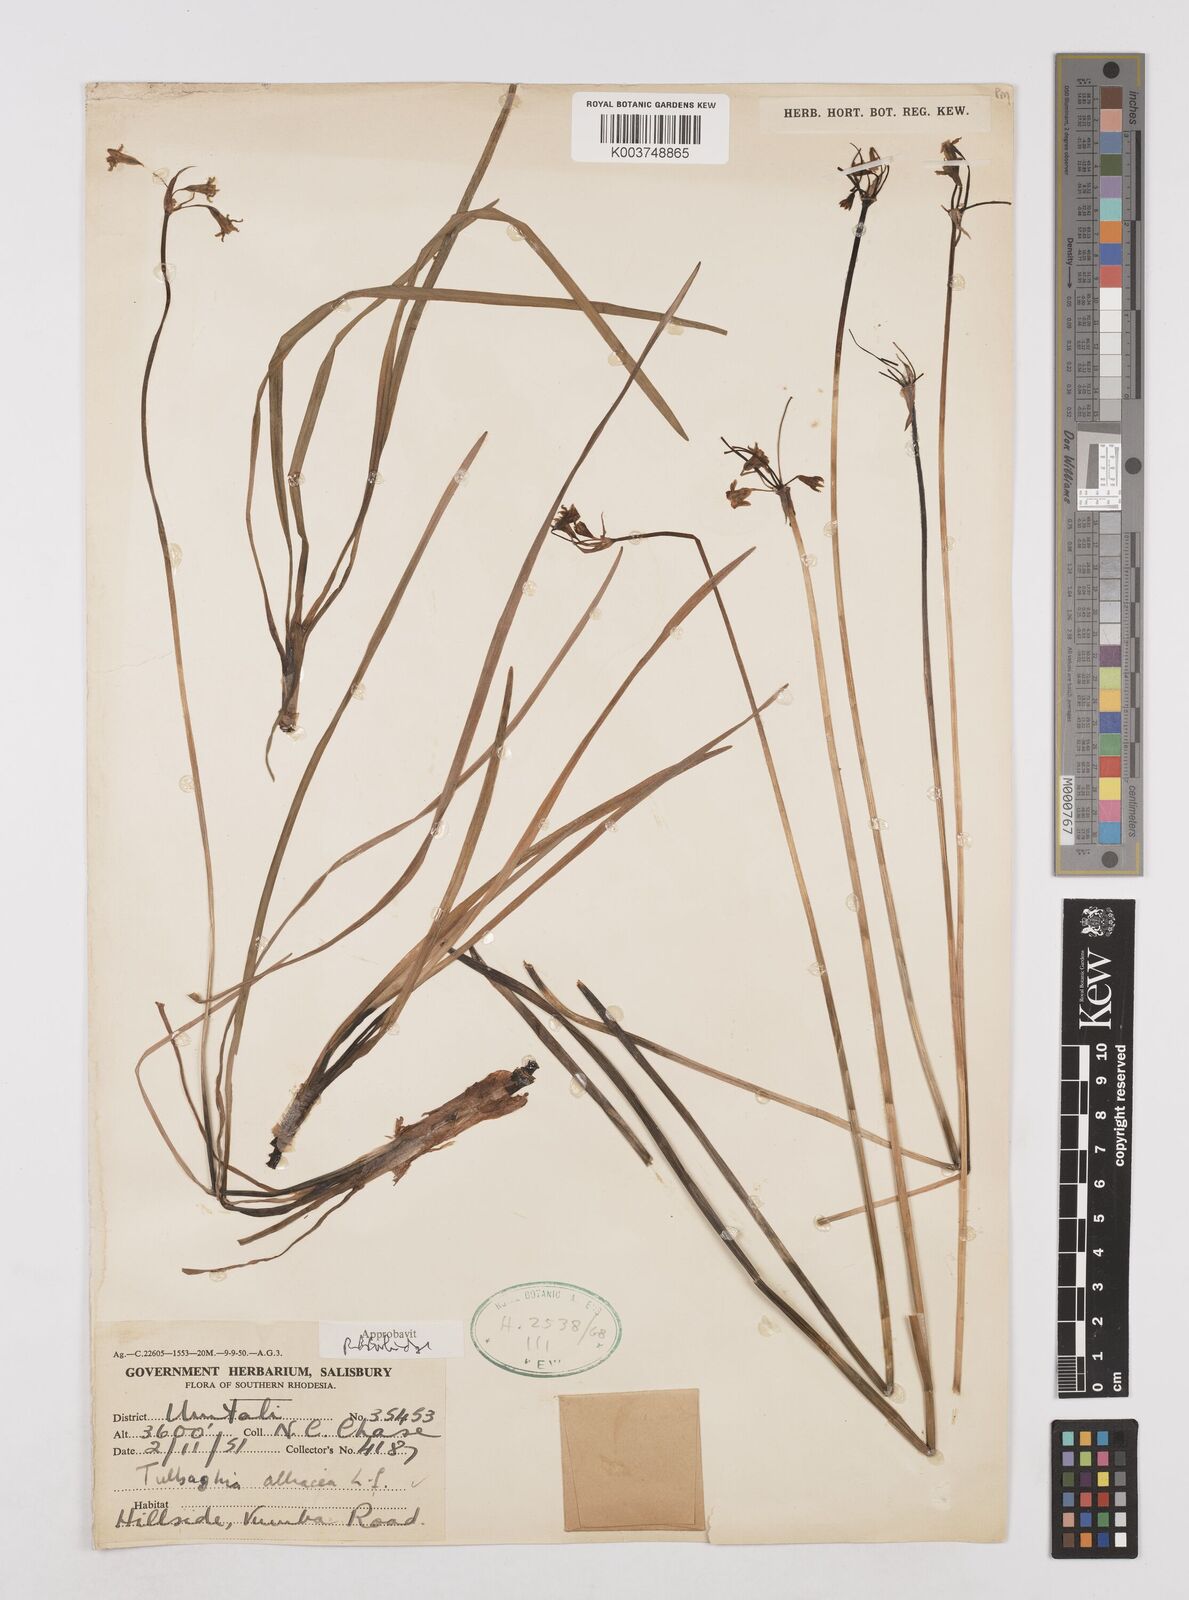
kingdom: Plantae
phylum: Tracheophyta
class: Liliopsida
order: Asparagales
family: Amaryllidaceae
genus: Tulbaghia
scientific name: Tulbaghia alliacea
